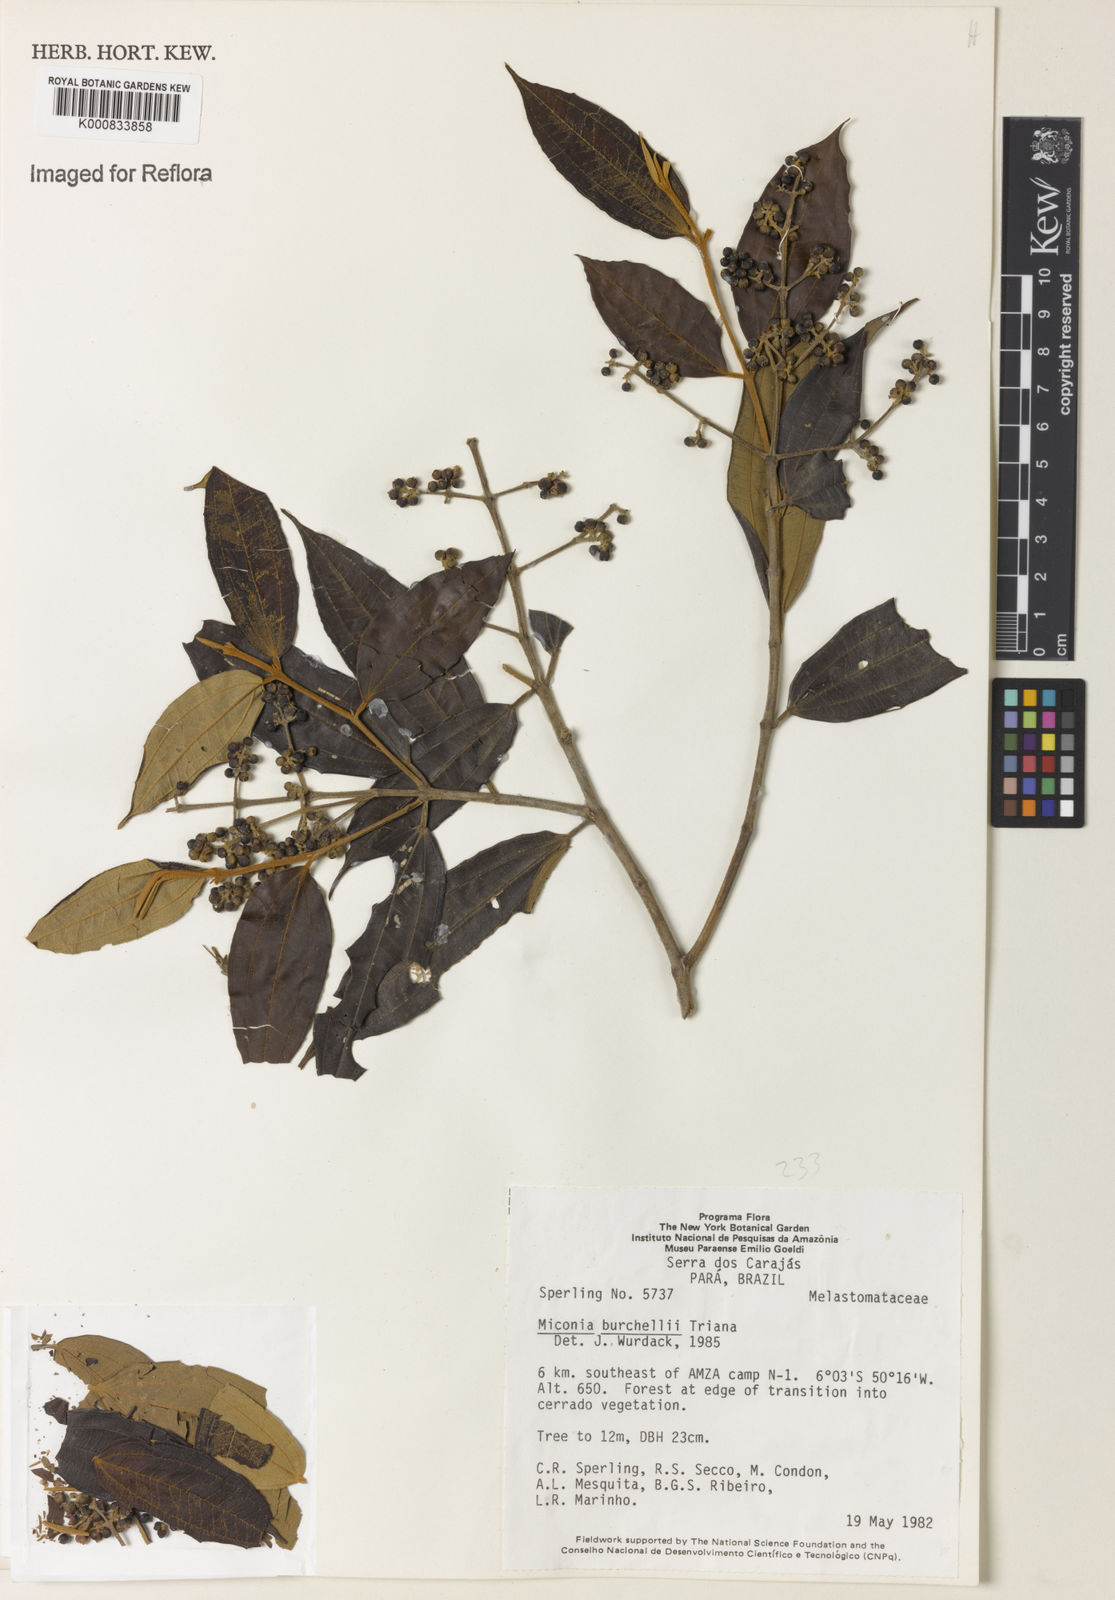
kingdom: Plantae
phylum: Tracheophyta
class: Magnoliopsida
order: Myrtales
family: Melastomataceae
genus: Miconia
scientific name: Miconia burchellii
